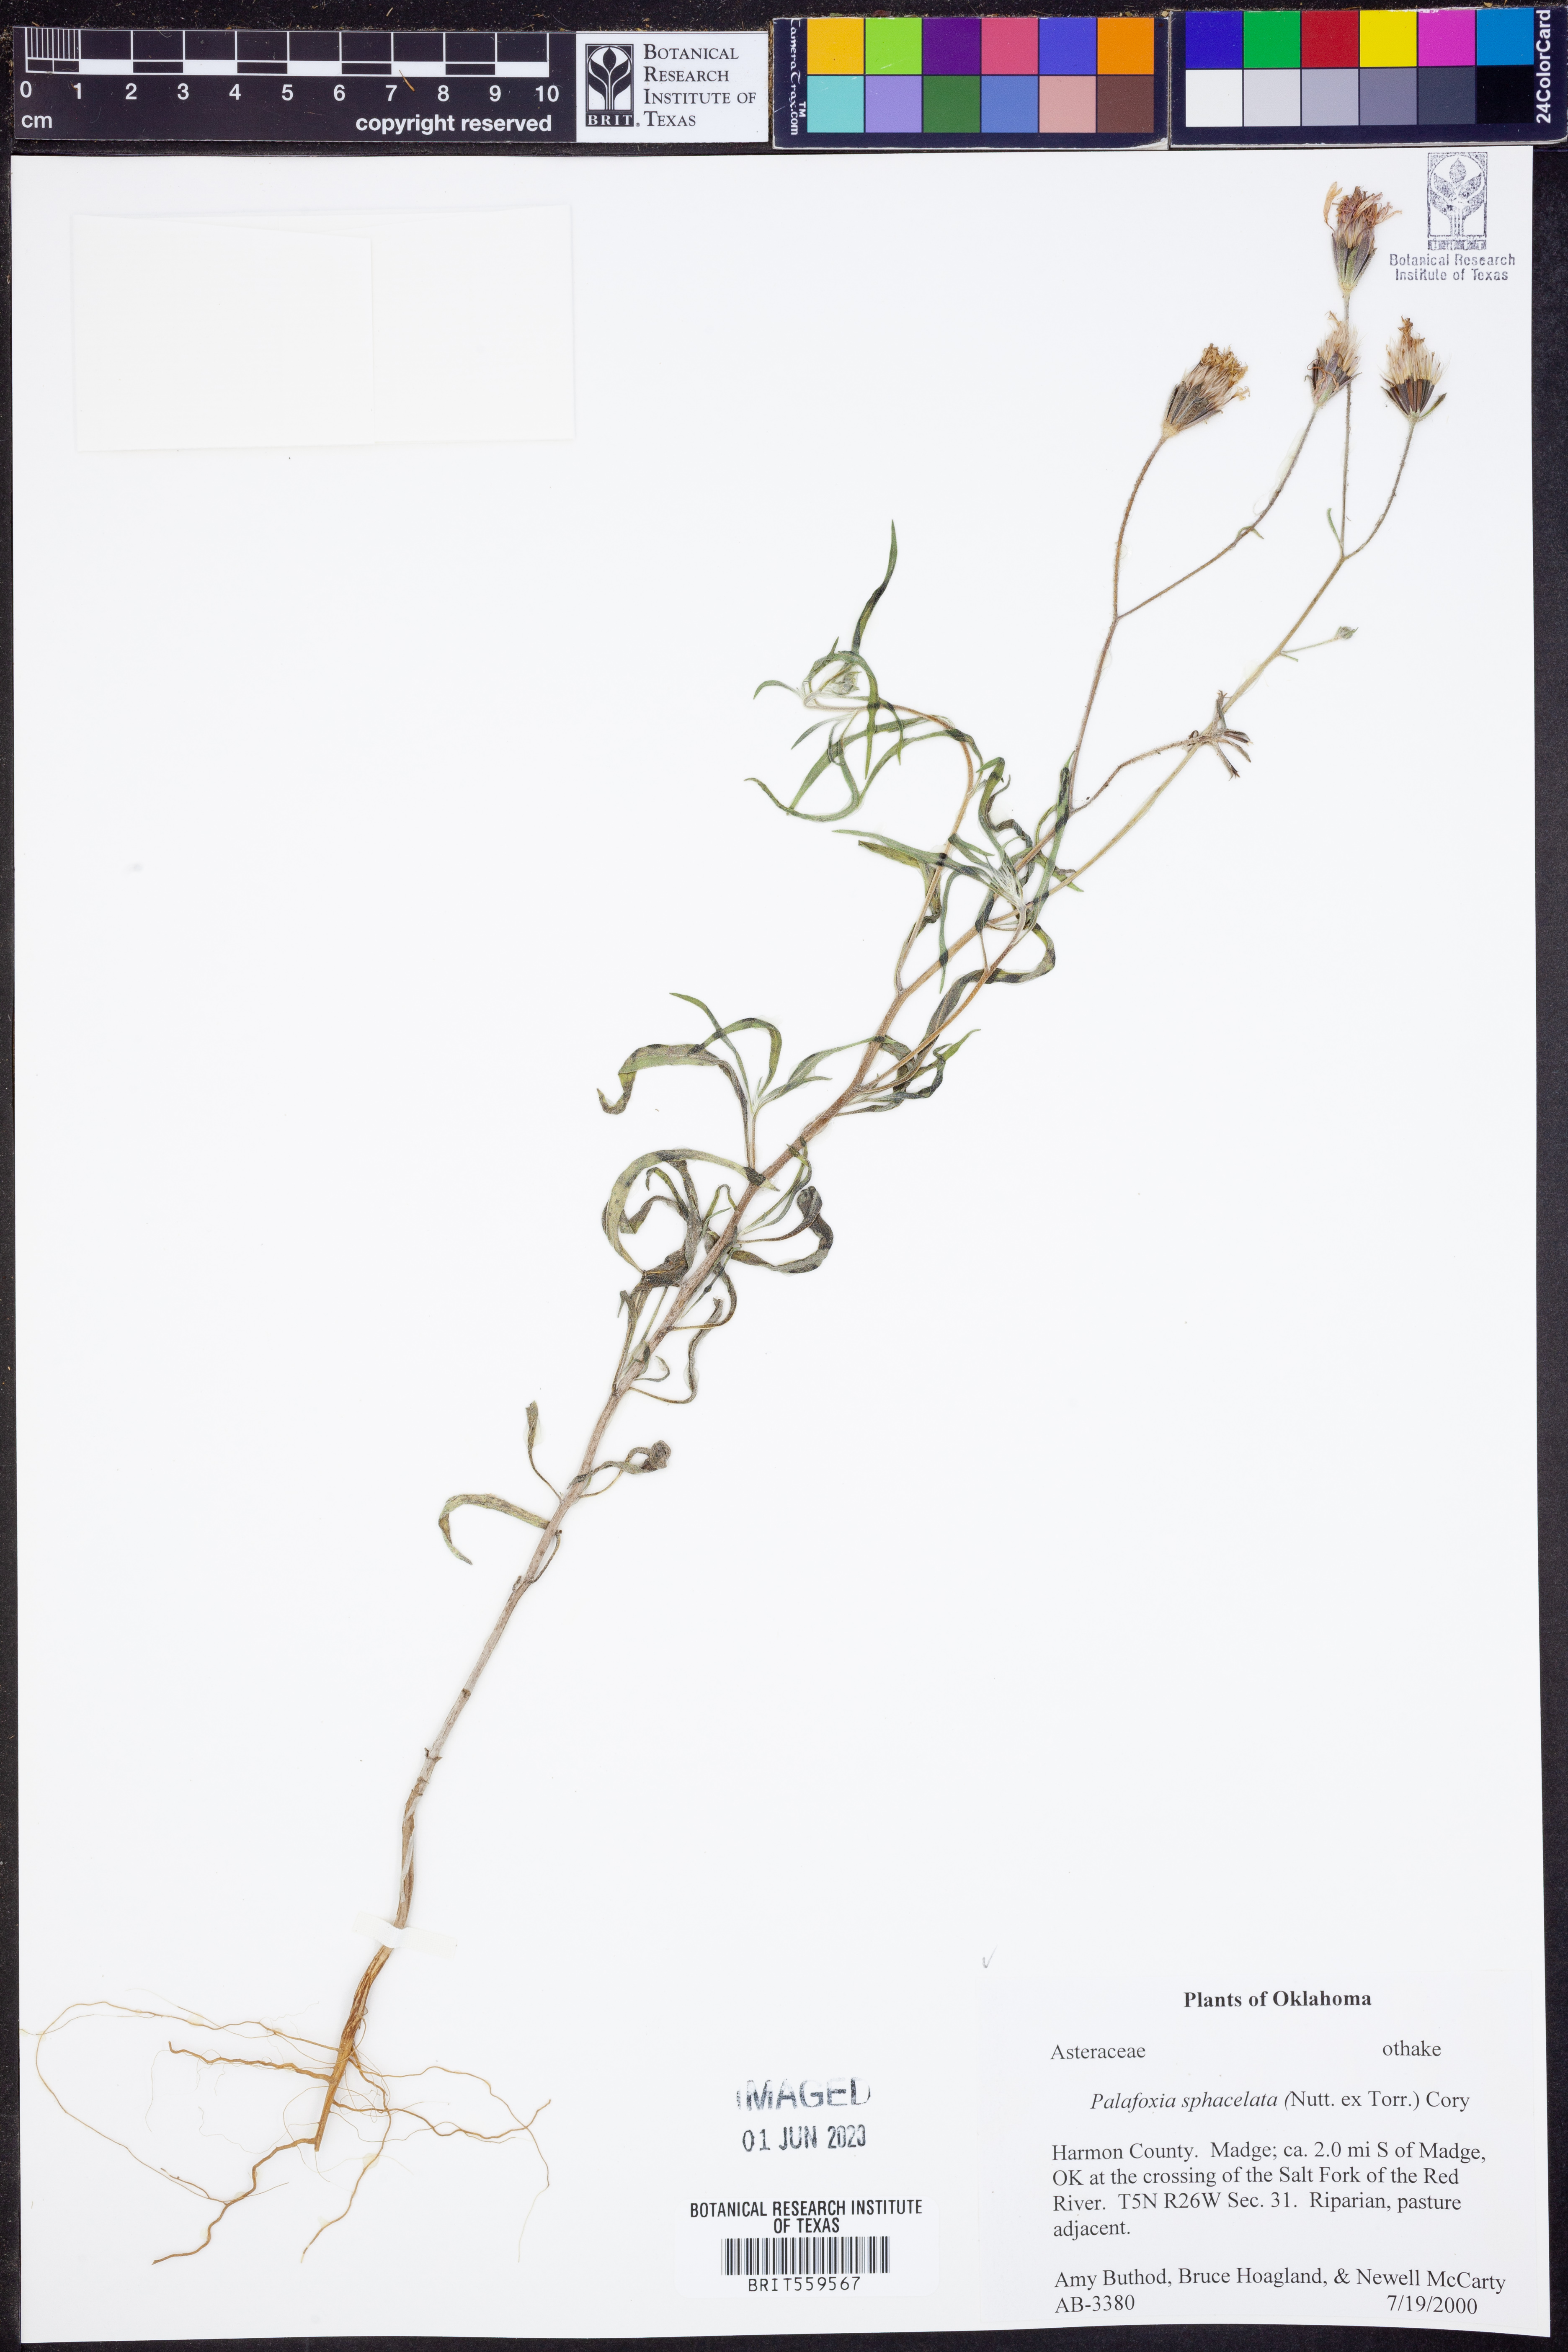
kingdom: Plantae
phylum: Tracheophyta
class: Magnoliopsida
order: Asterales
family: Asteraceae
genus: Palafoxia
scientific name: Palafoxia sphacelata
